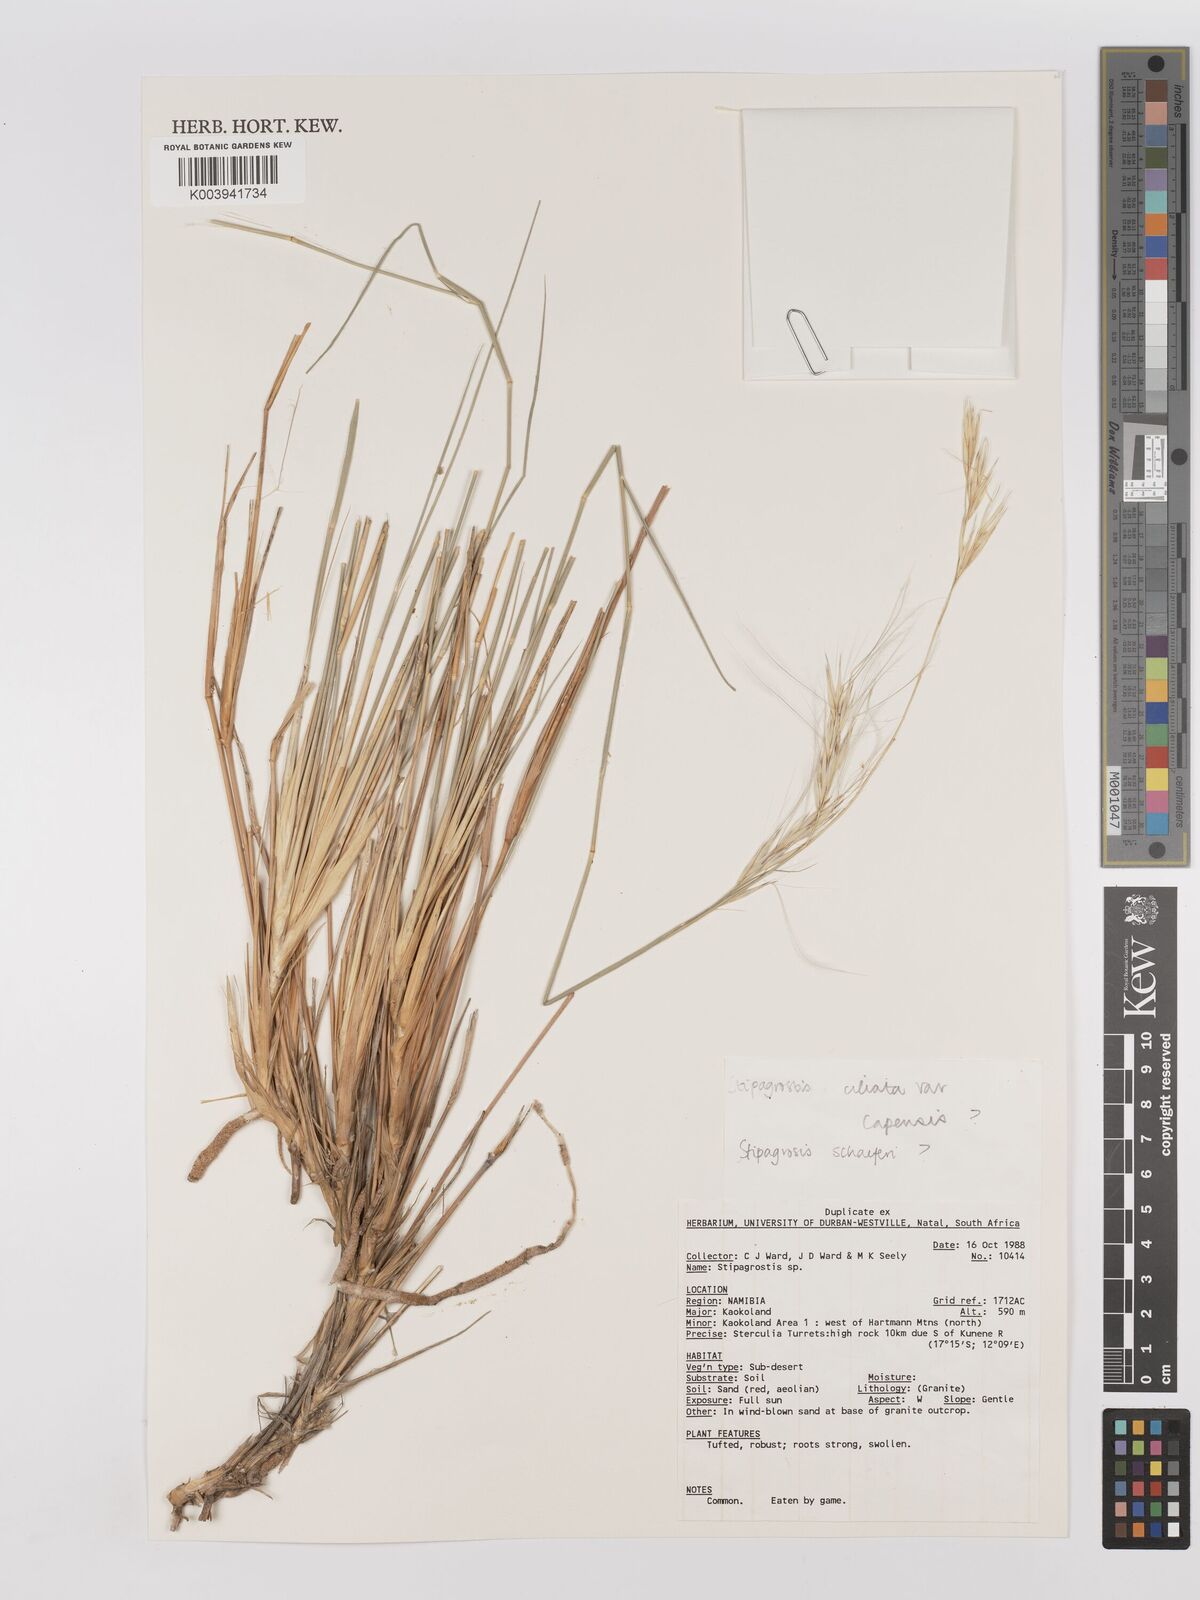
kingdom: Plantae
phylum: Tracheophyta
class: Liliopsida
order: Poales
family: Poaceae
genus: Stipagrostis
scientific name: Stipagrostis schaeferi
